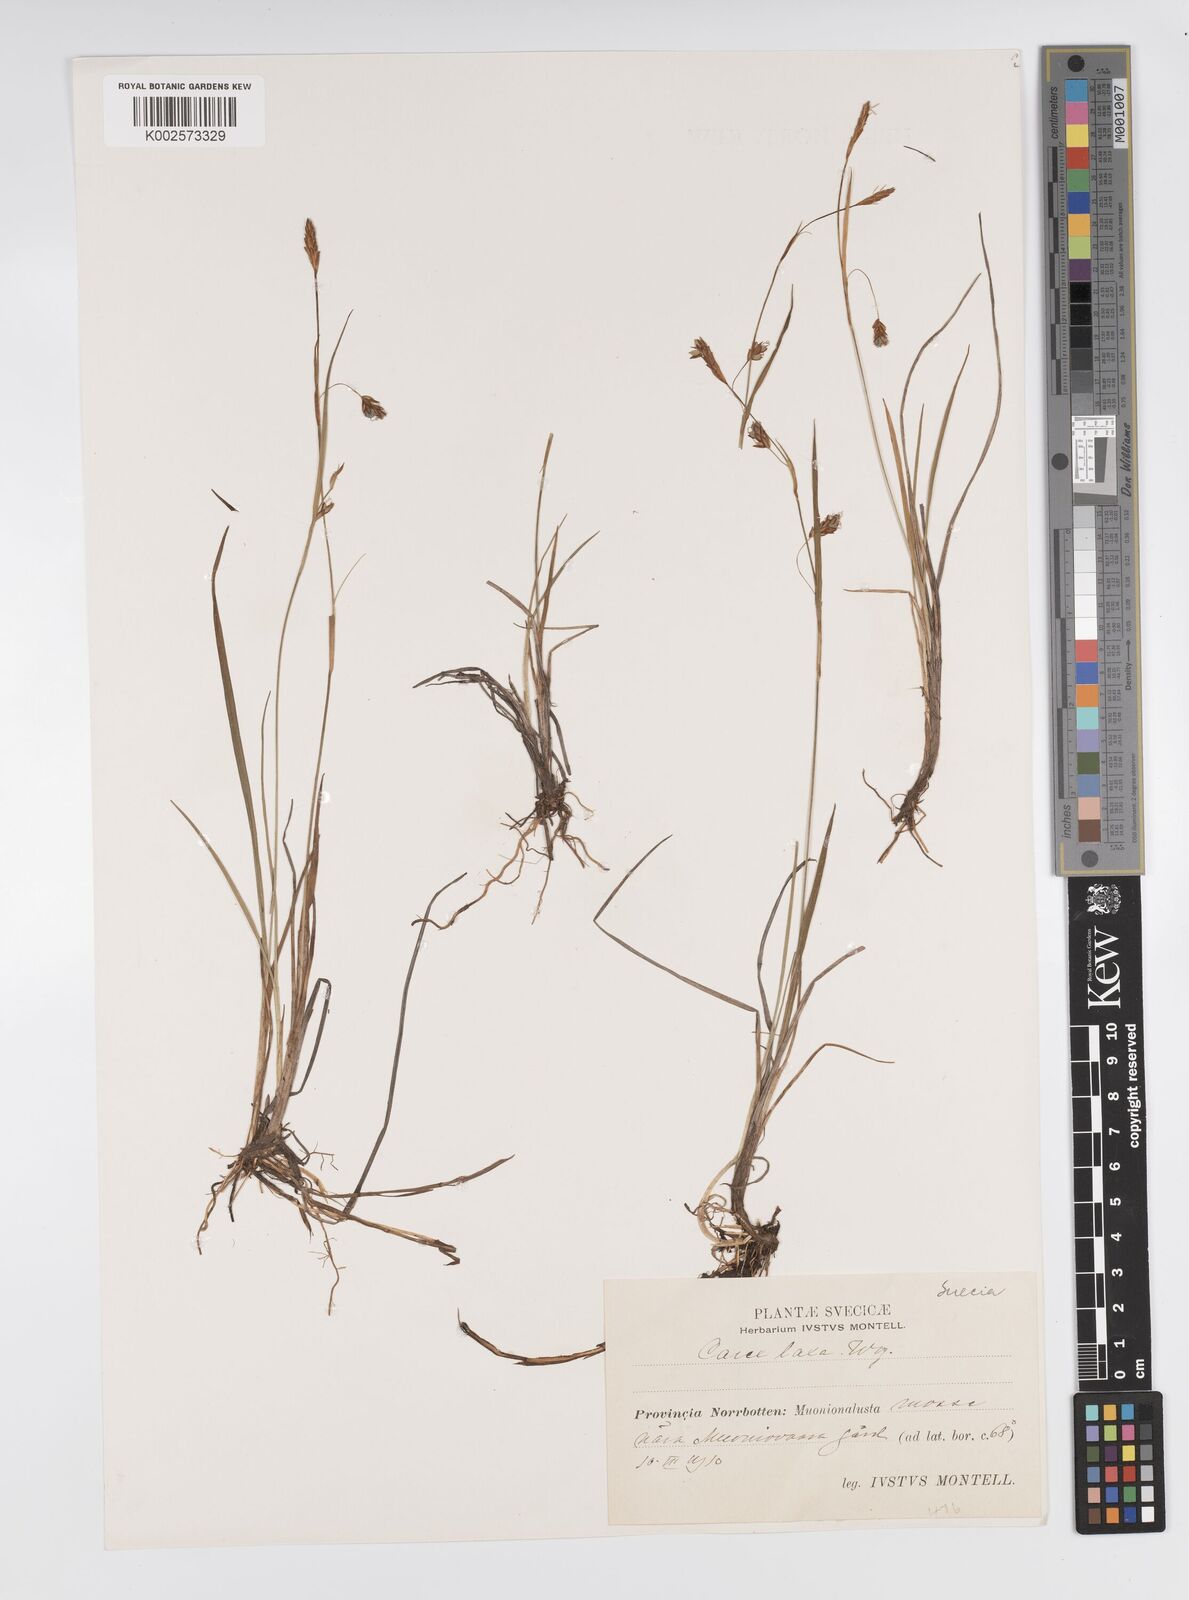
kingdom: Plantae
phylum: Tracheophyta
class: Liliopsida
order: Poales
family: Cyperaceae
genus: Carex
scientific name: Carex laxa
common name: Weak sedge
